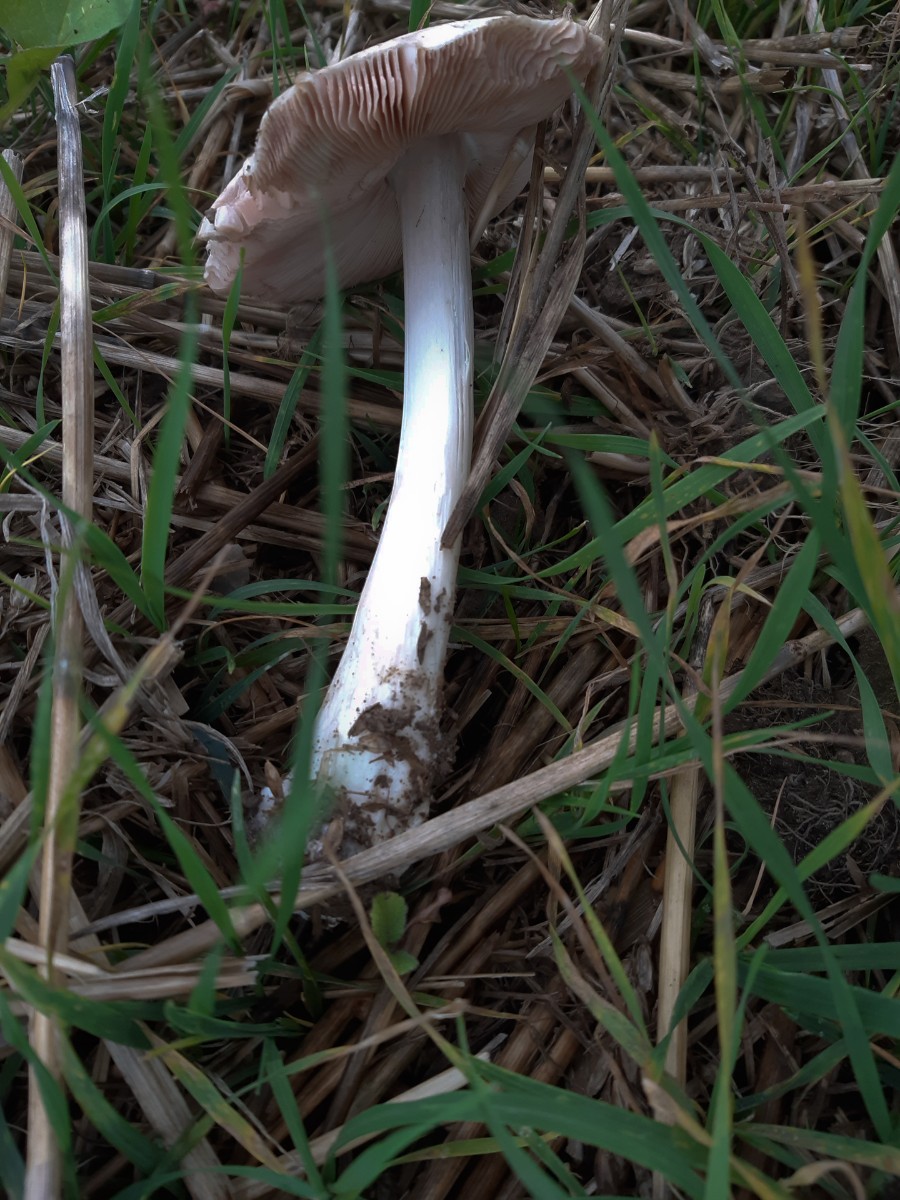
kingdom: Fungi
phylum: Basidiomycota
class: Agaricomycetes
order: Agaricales
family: Pluteaceae
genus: Volvopluteus
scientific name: Volvopluteus gloiocephalus
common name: høj posesvamp
